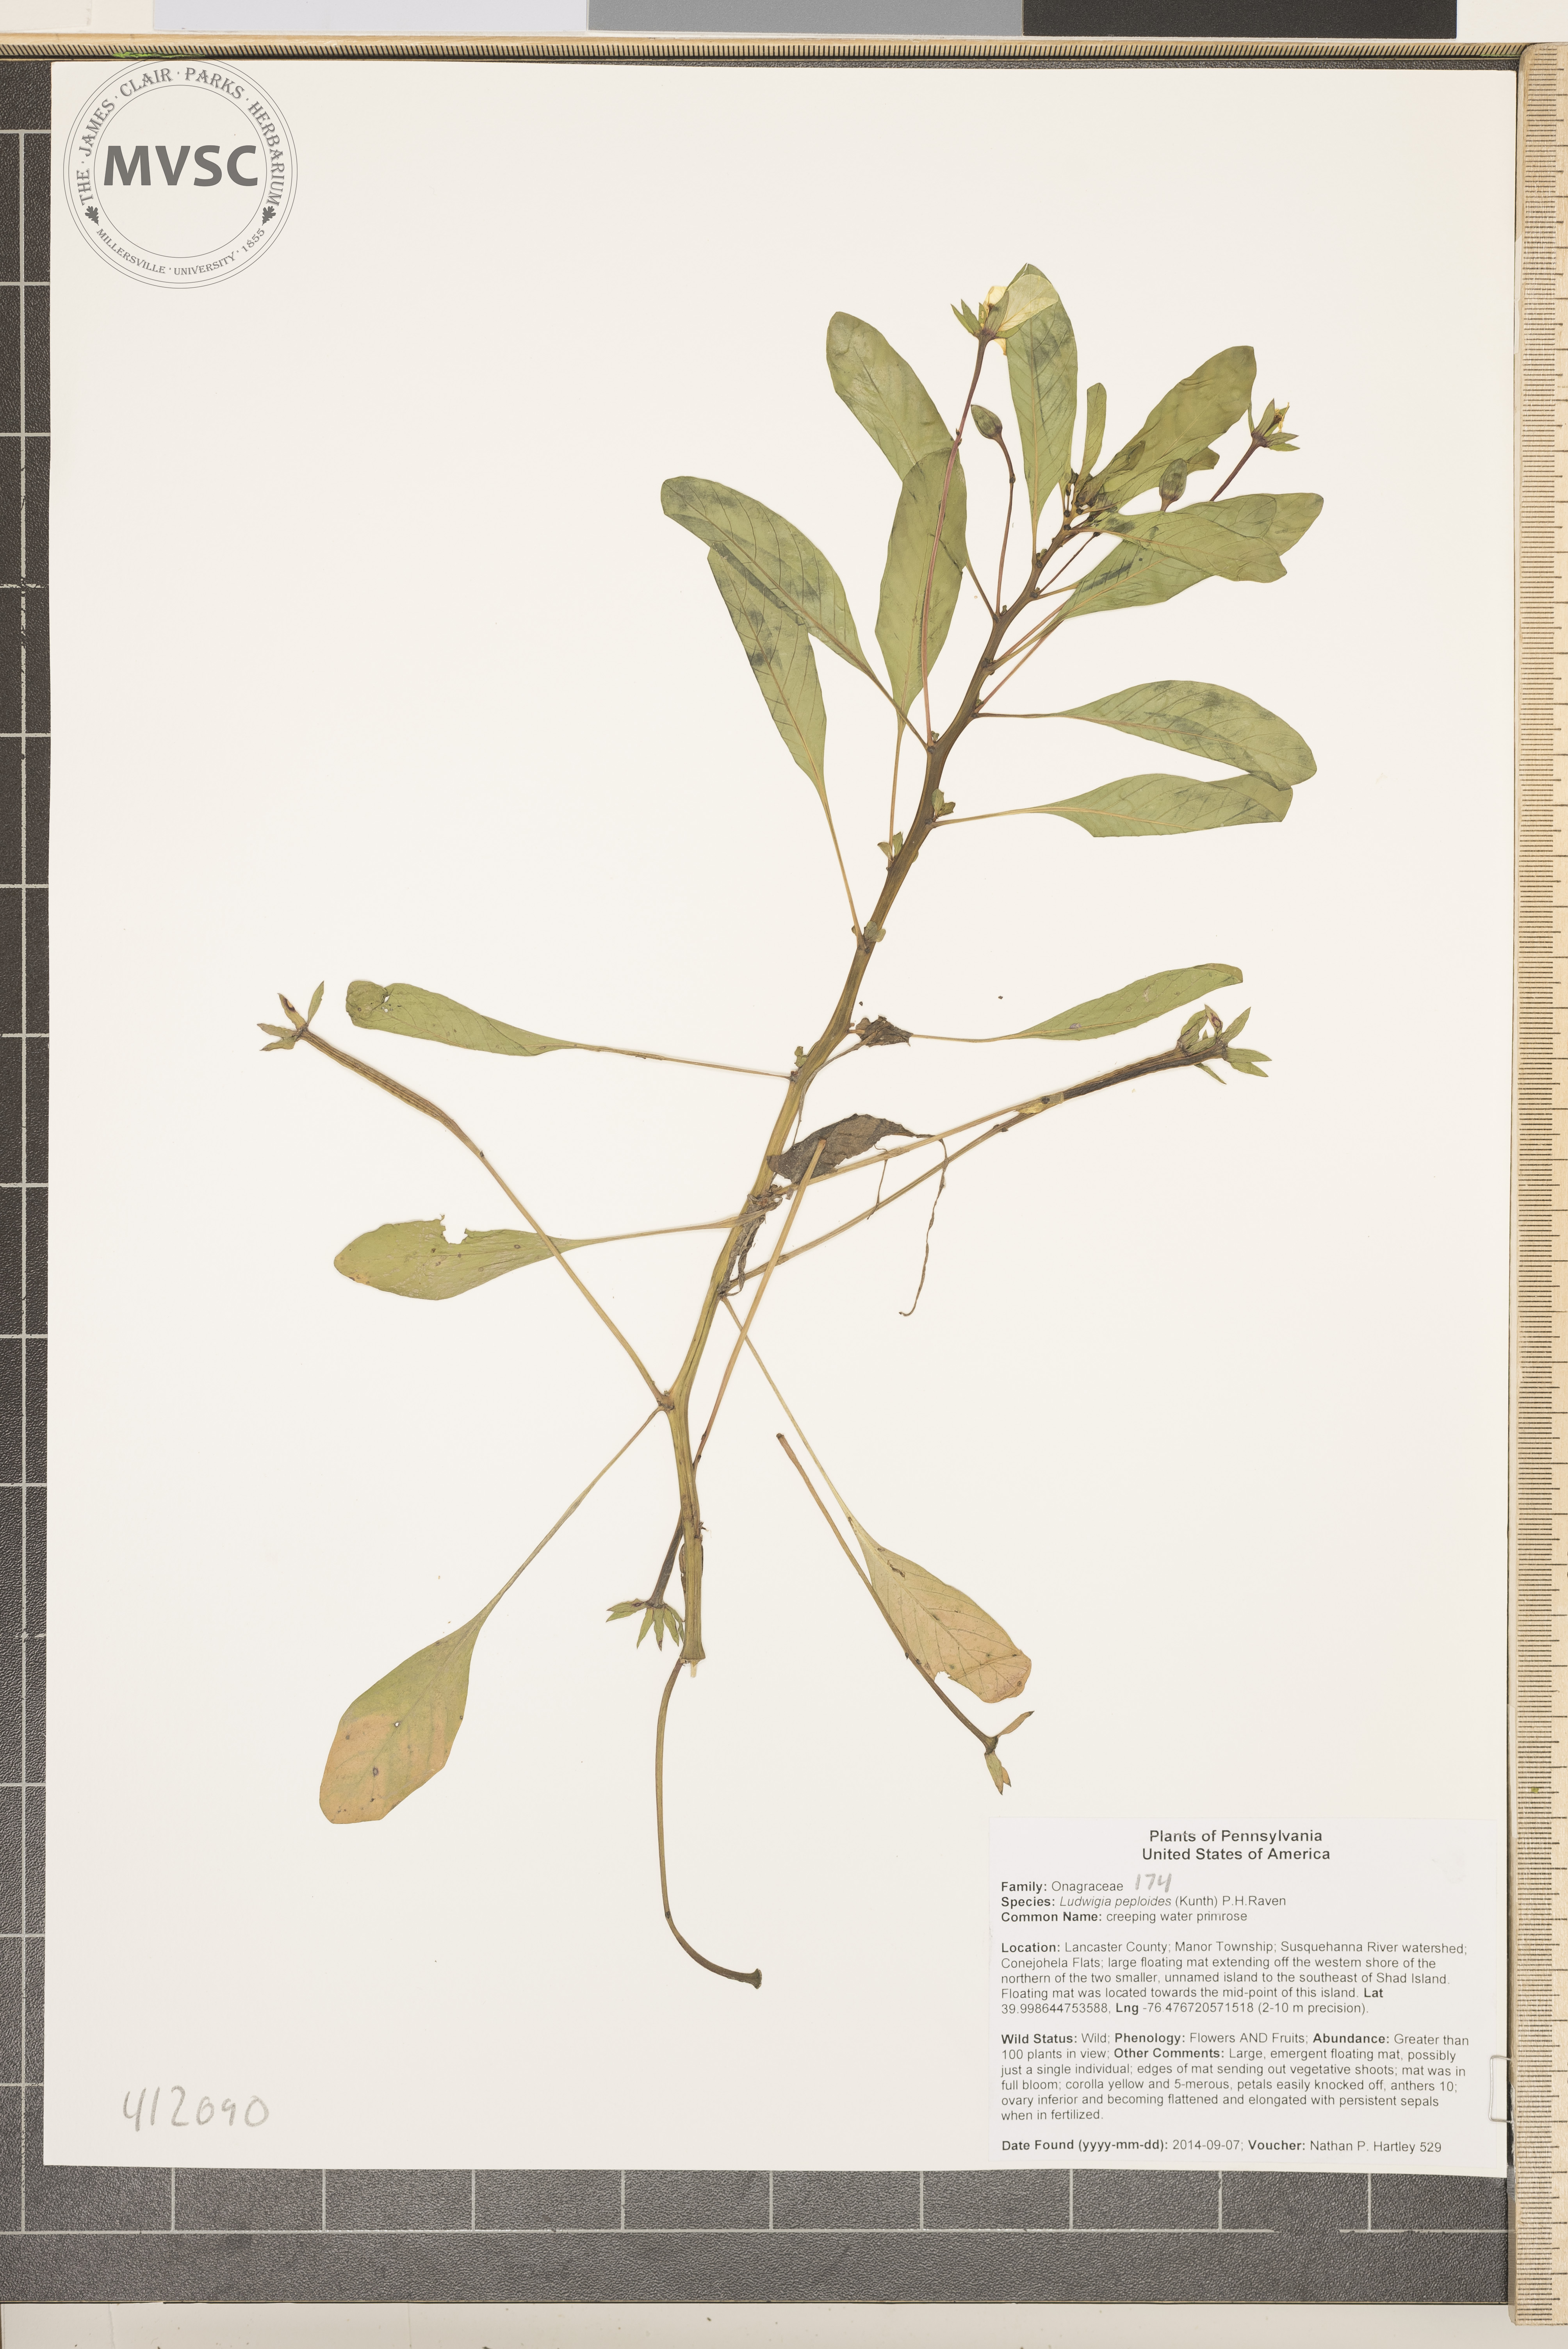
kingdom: Plantae
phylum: Tracheophyta
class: Magnoliopsida
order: Myrtales
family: Onagraceae
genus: Ludwigia
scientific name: Ludwigia peploides
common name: creeping water primrose
